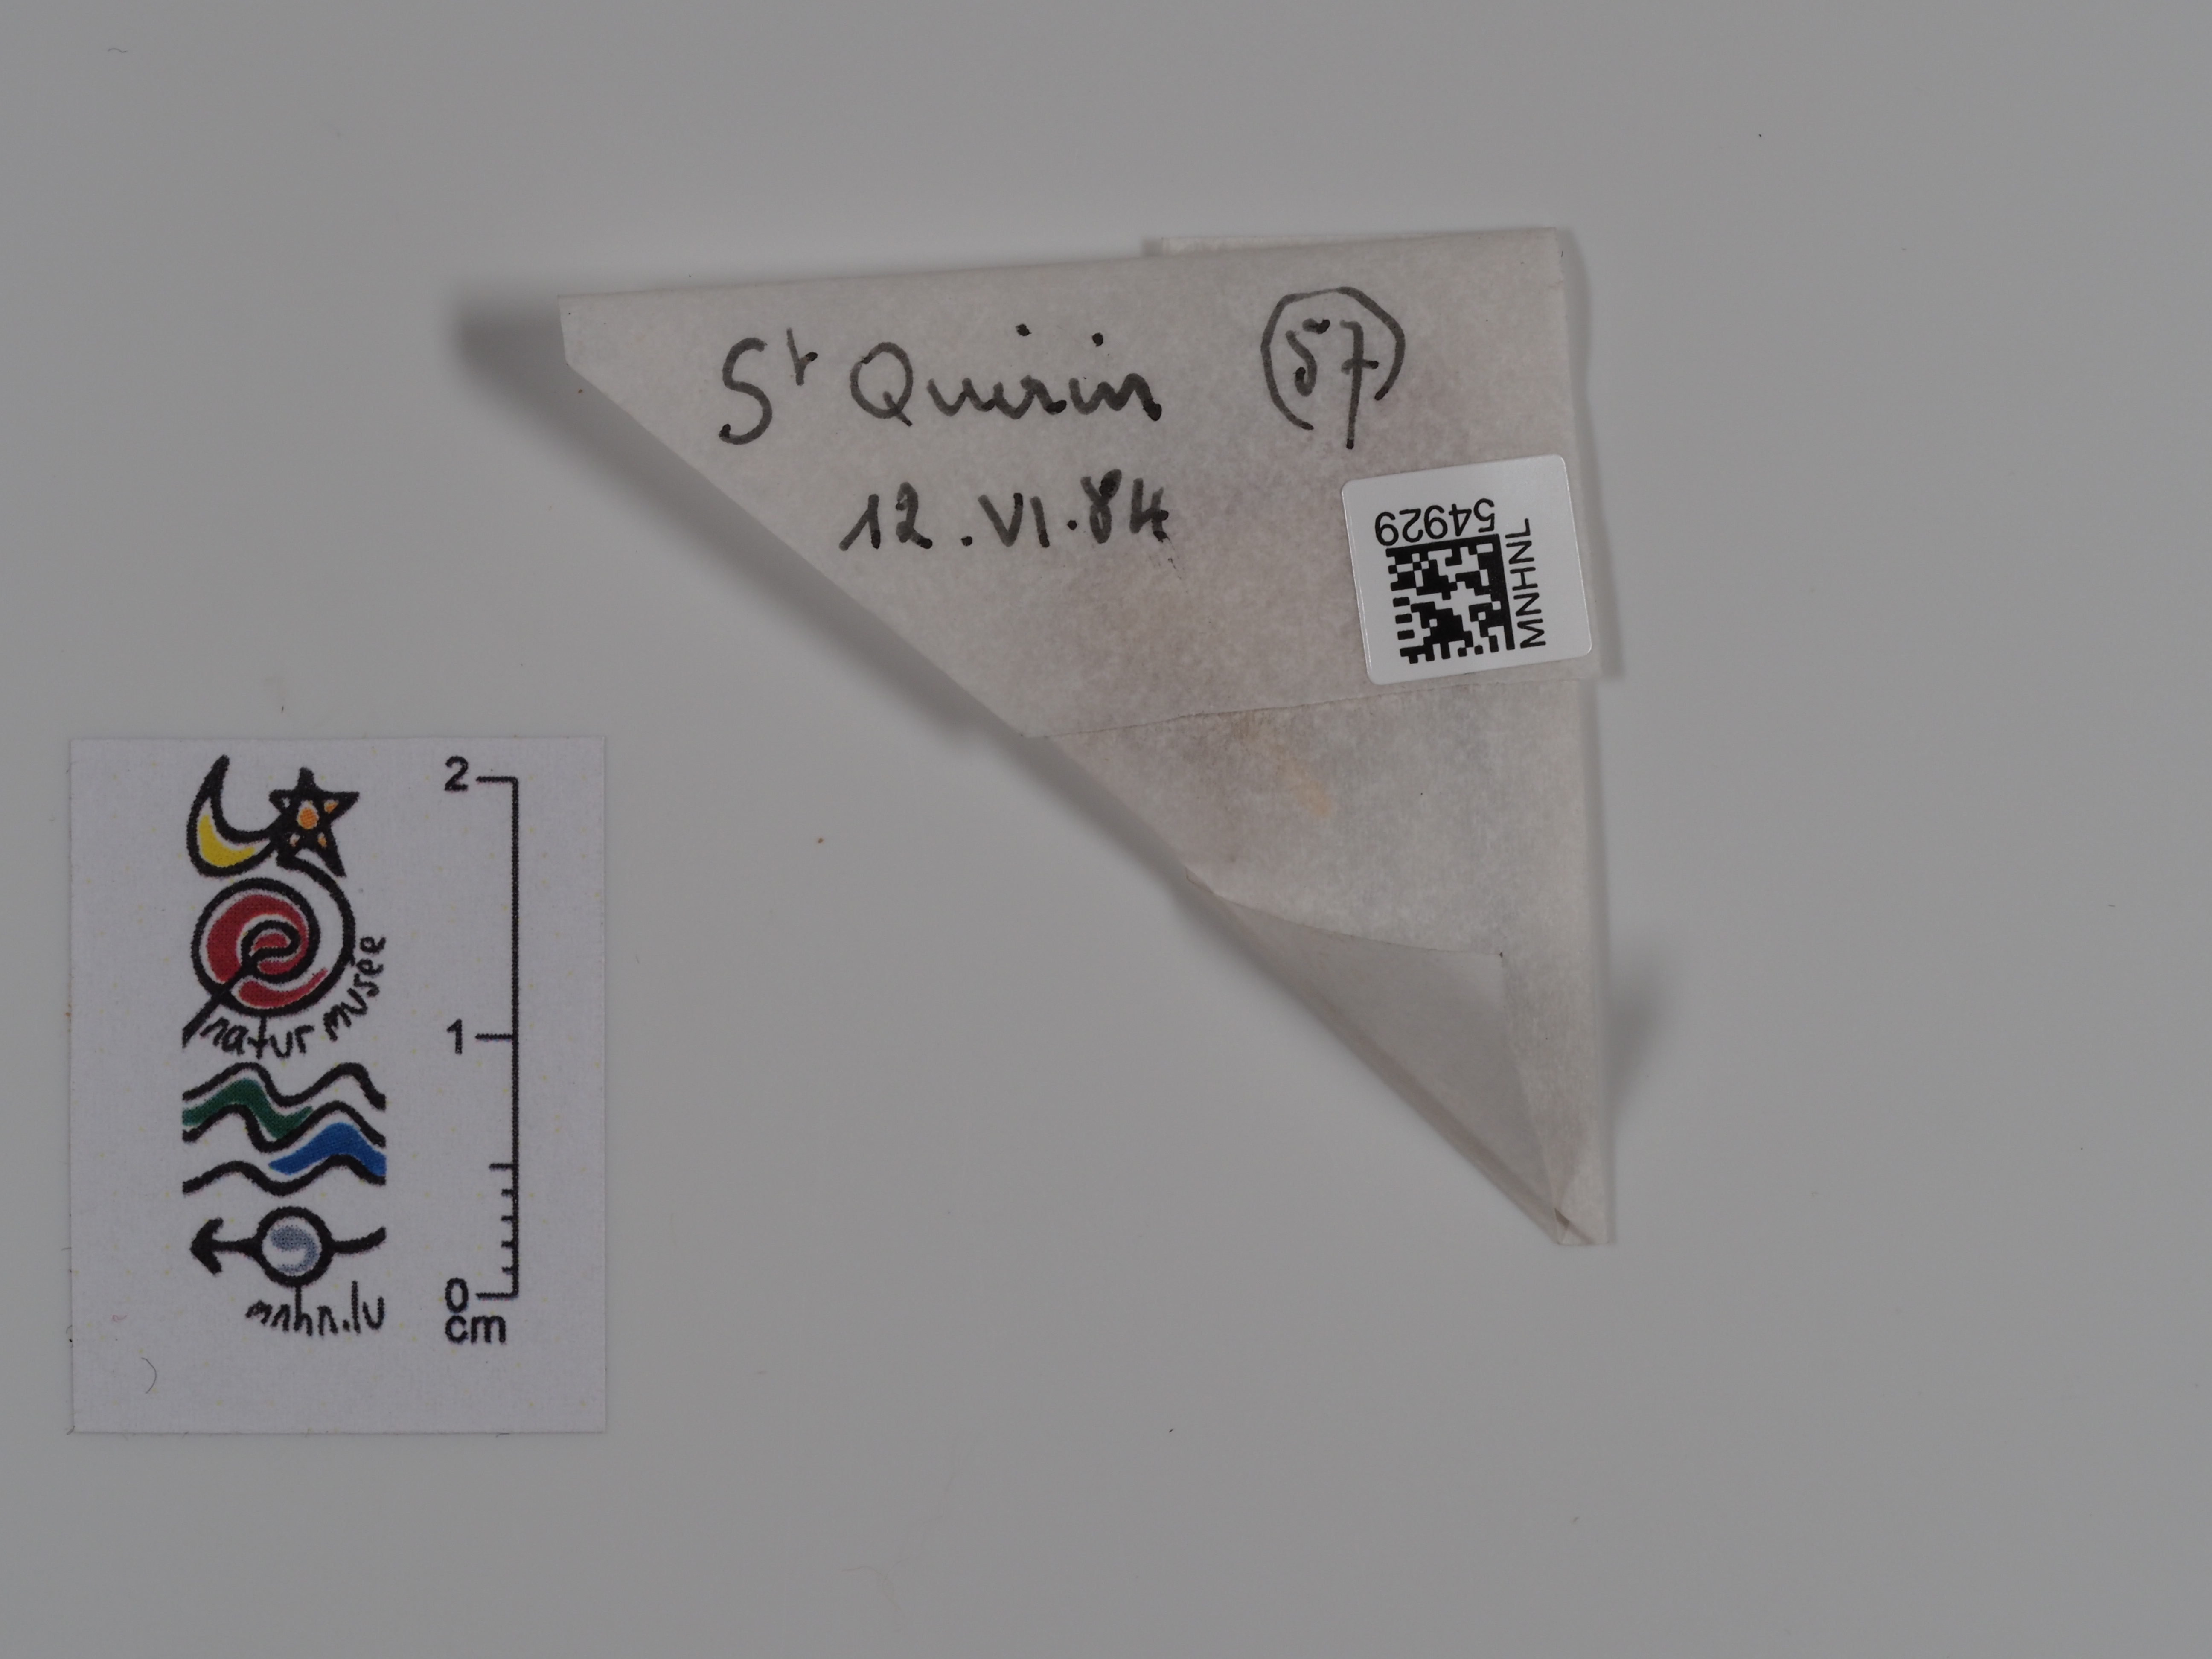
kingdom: Animalia
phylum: Arthropoda
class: Insecta
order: Lepidoptera
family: Pterophoridae
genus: Pterophorus
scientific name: Pterophorus
